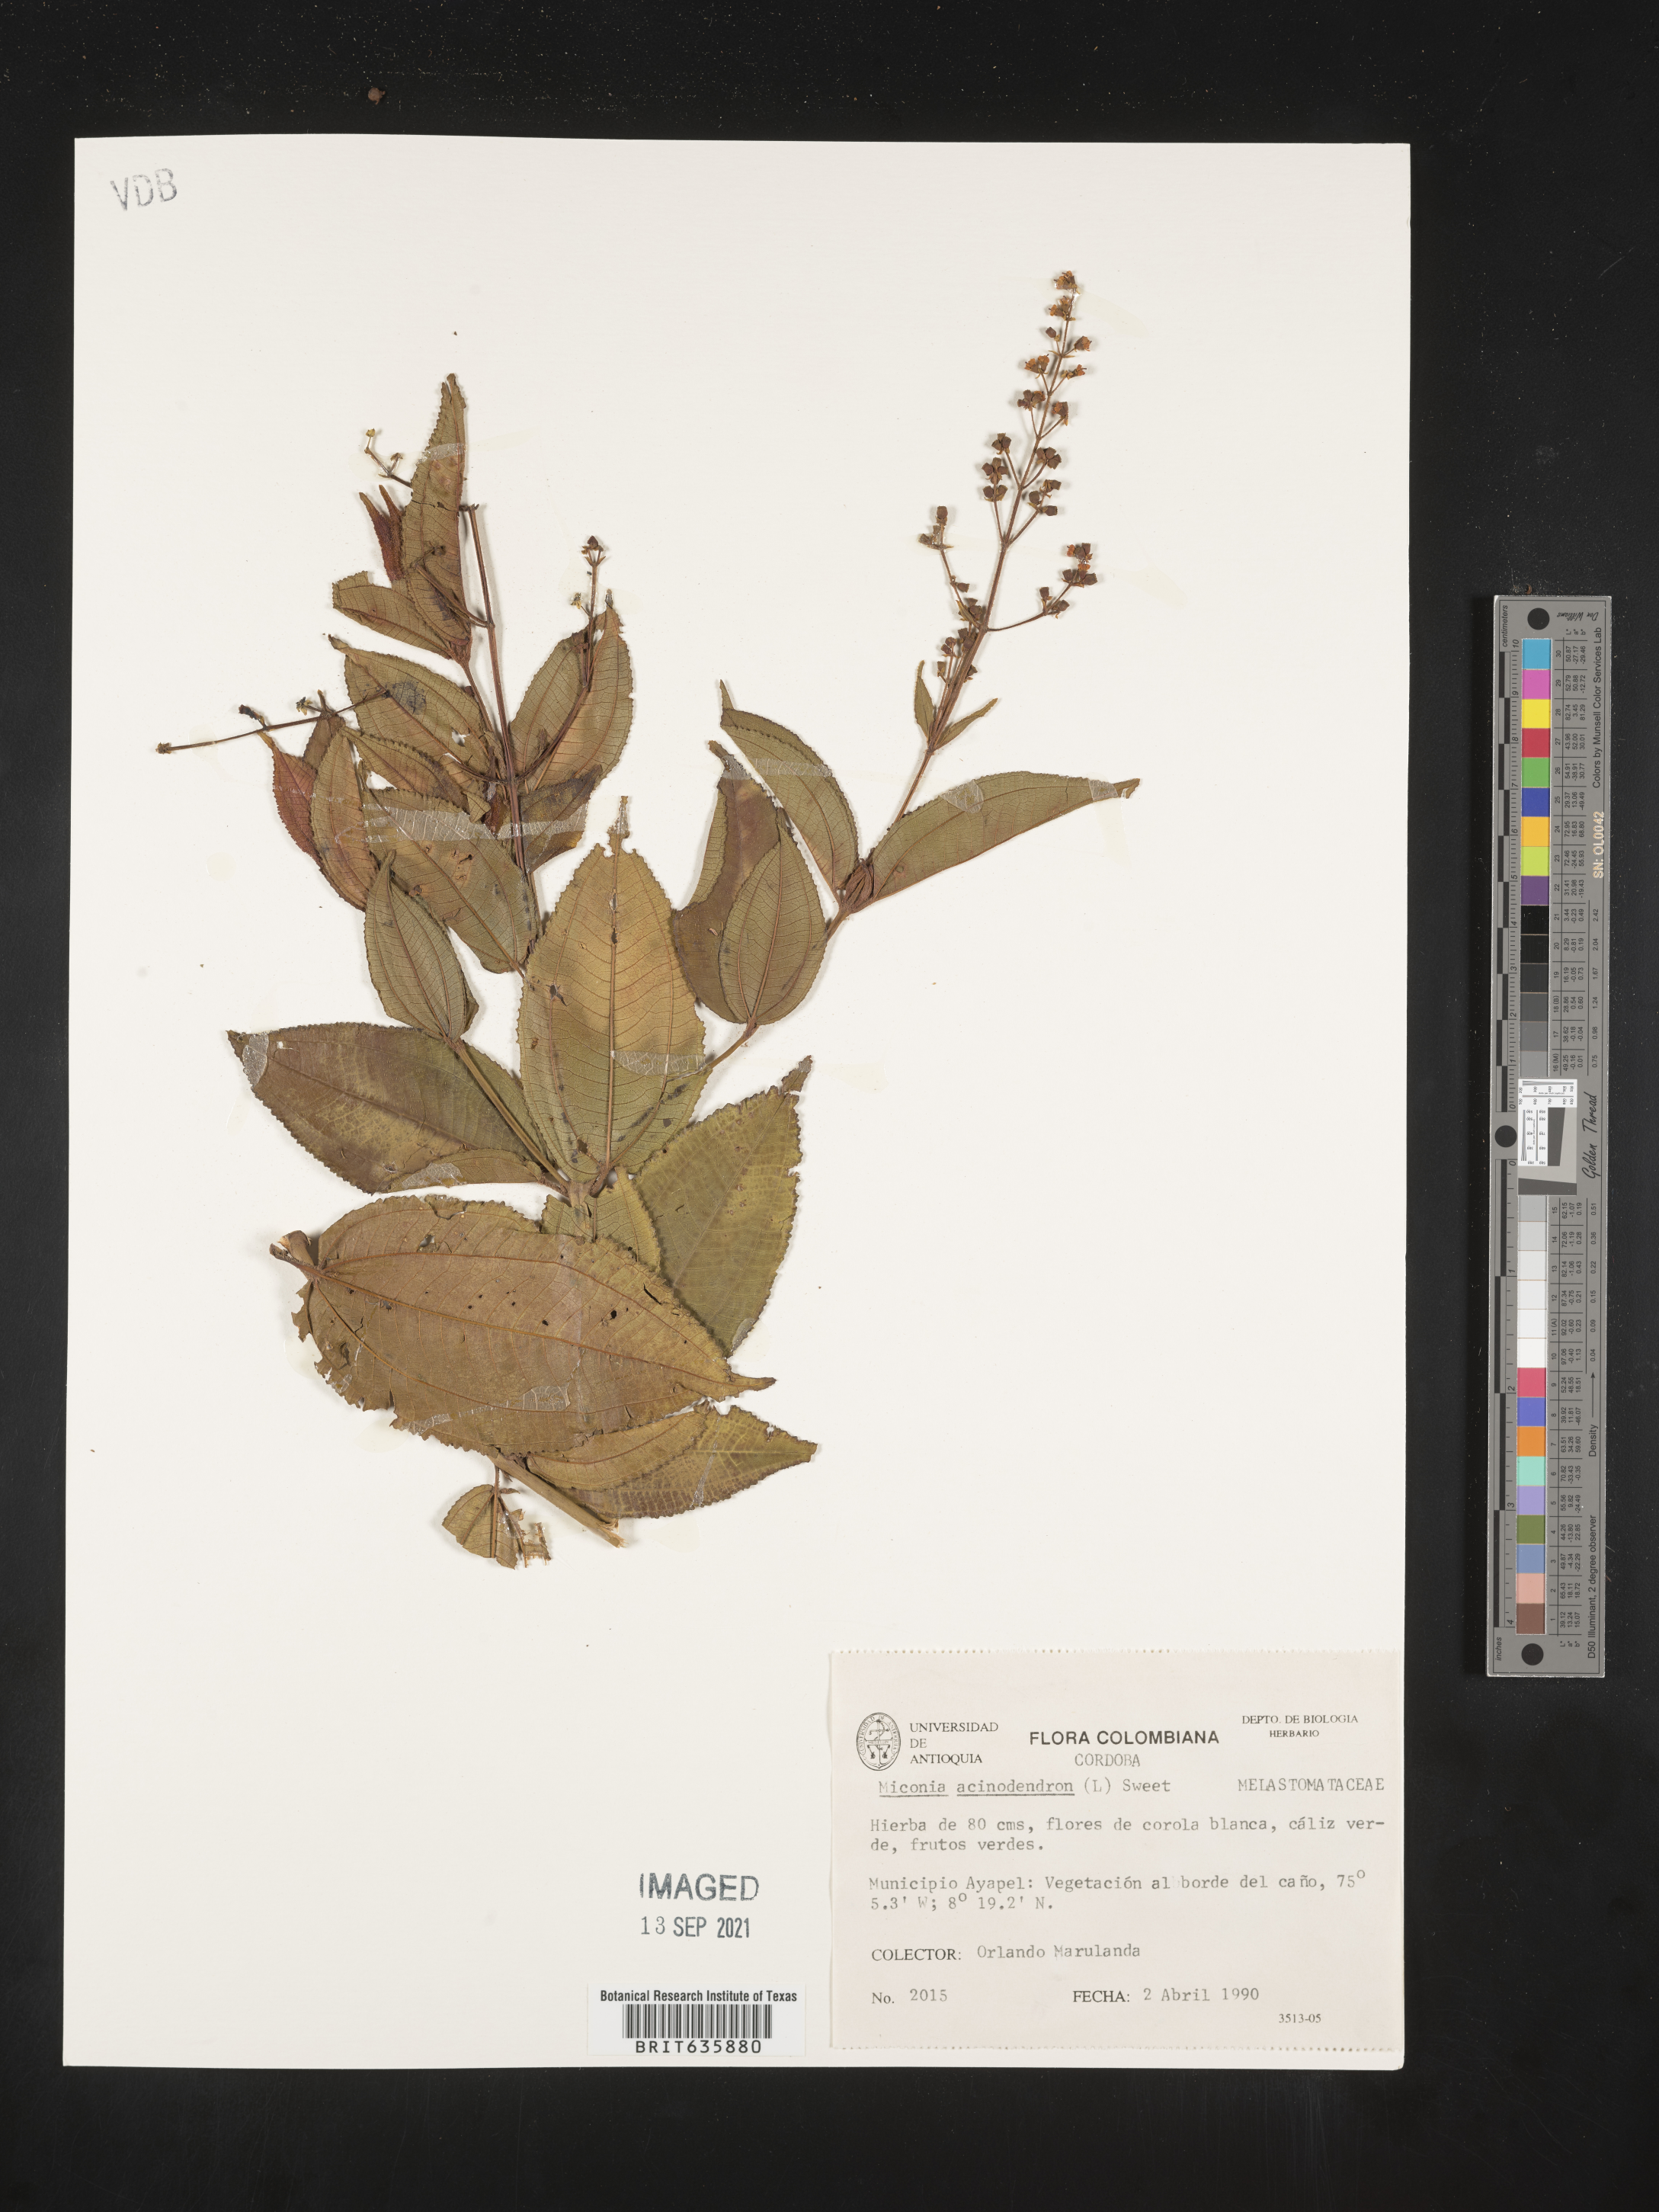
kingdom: Plantae
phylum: Tracheophyta
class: Magnoliopsida
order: Myrtales
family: Melastomataceae
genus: Miconia
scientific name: Miconia
